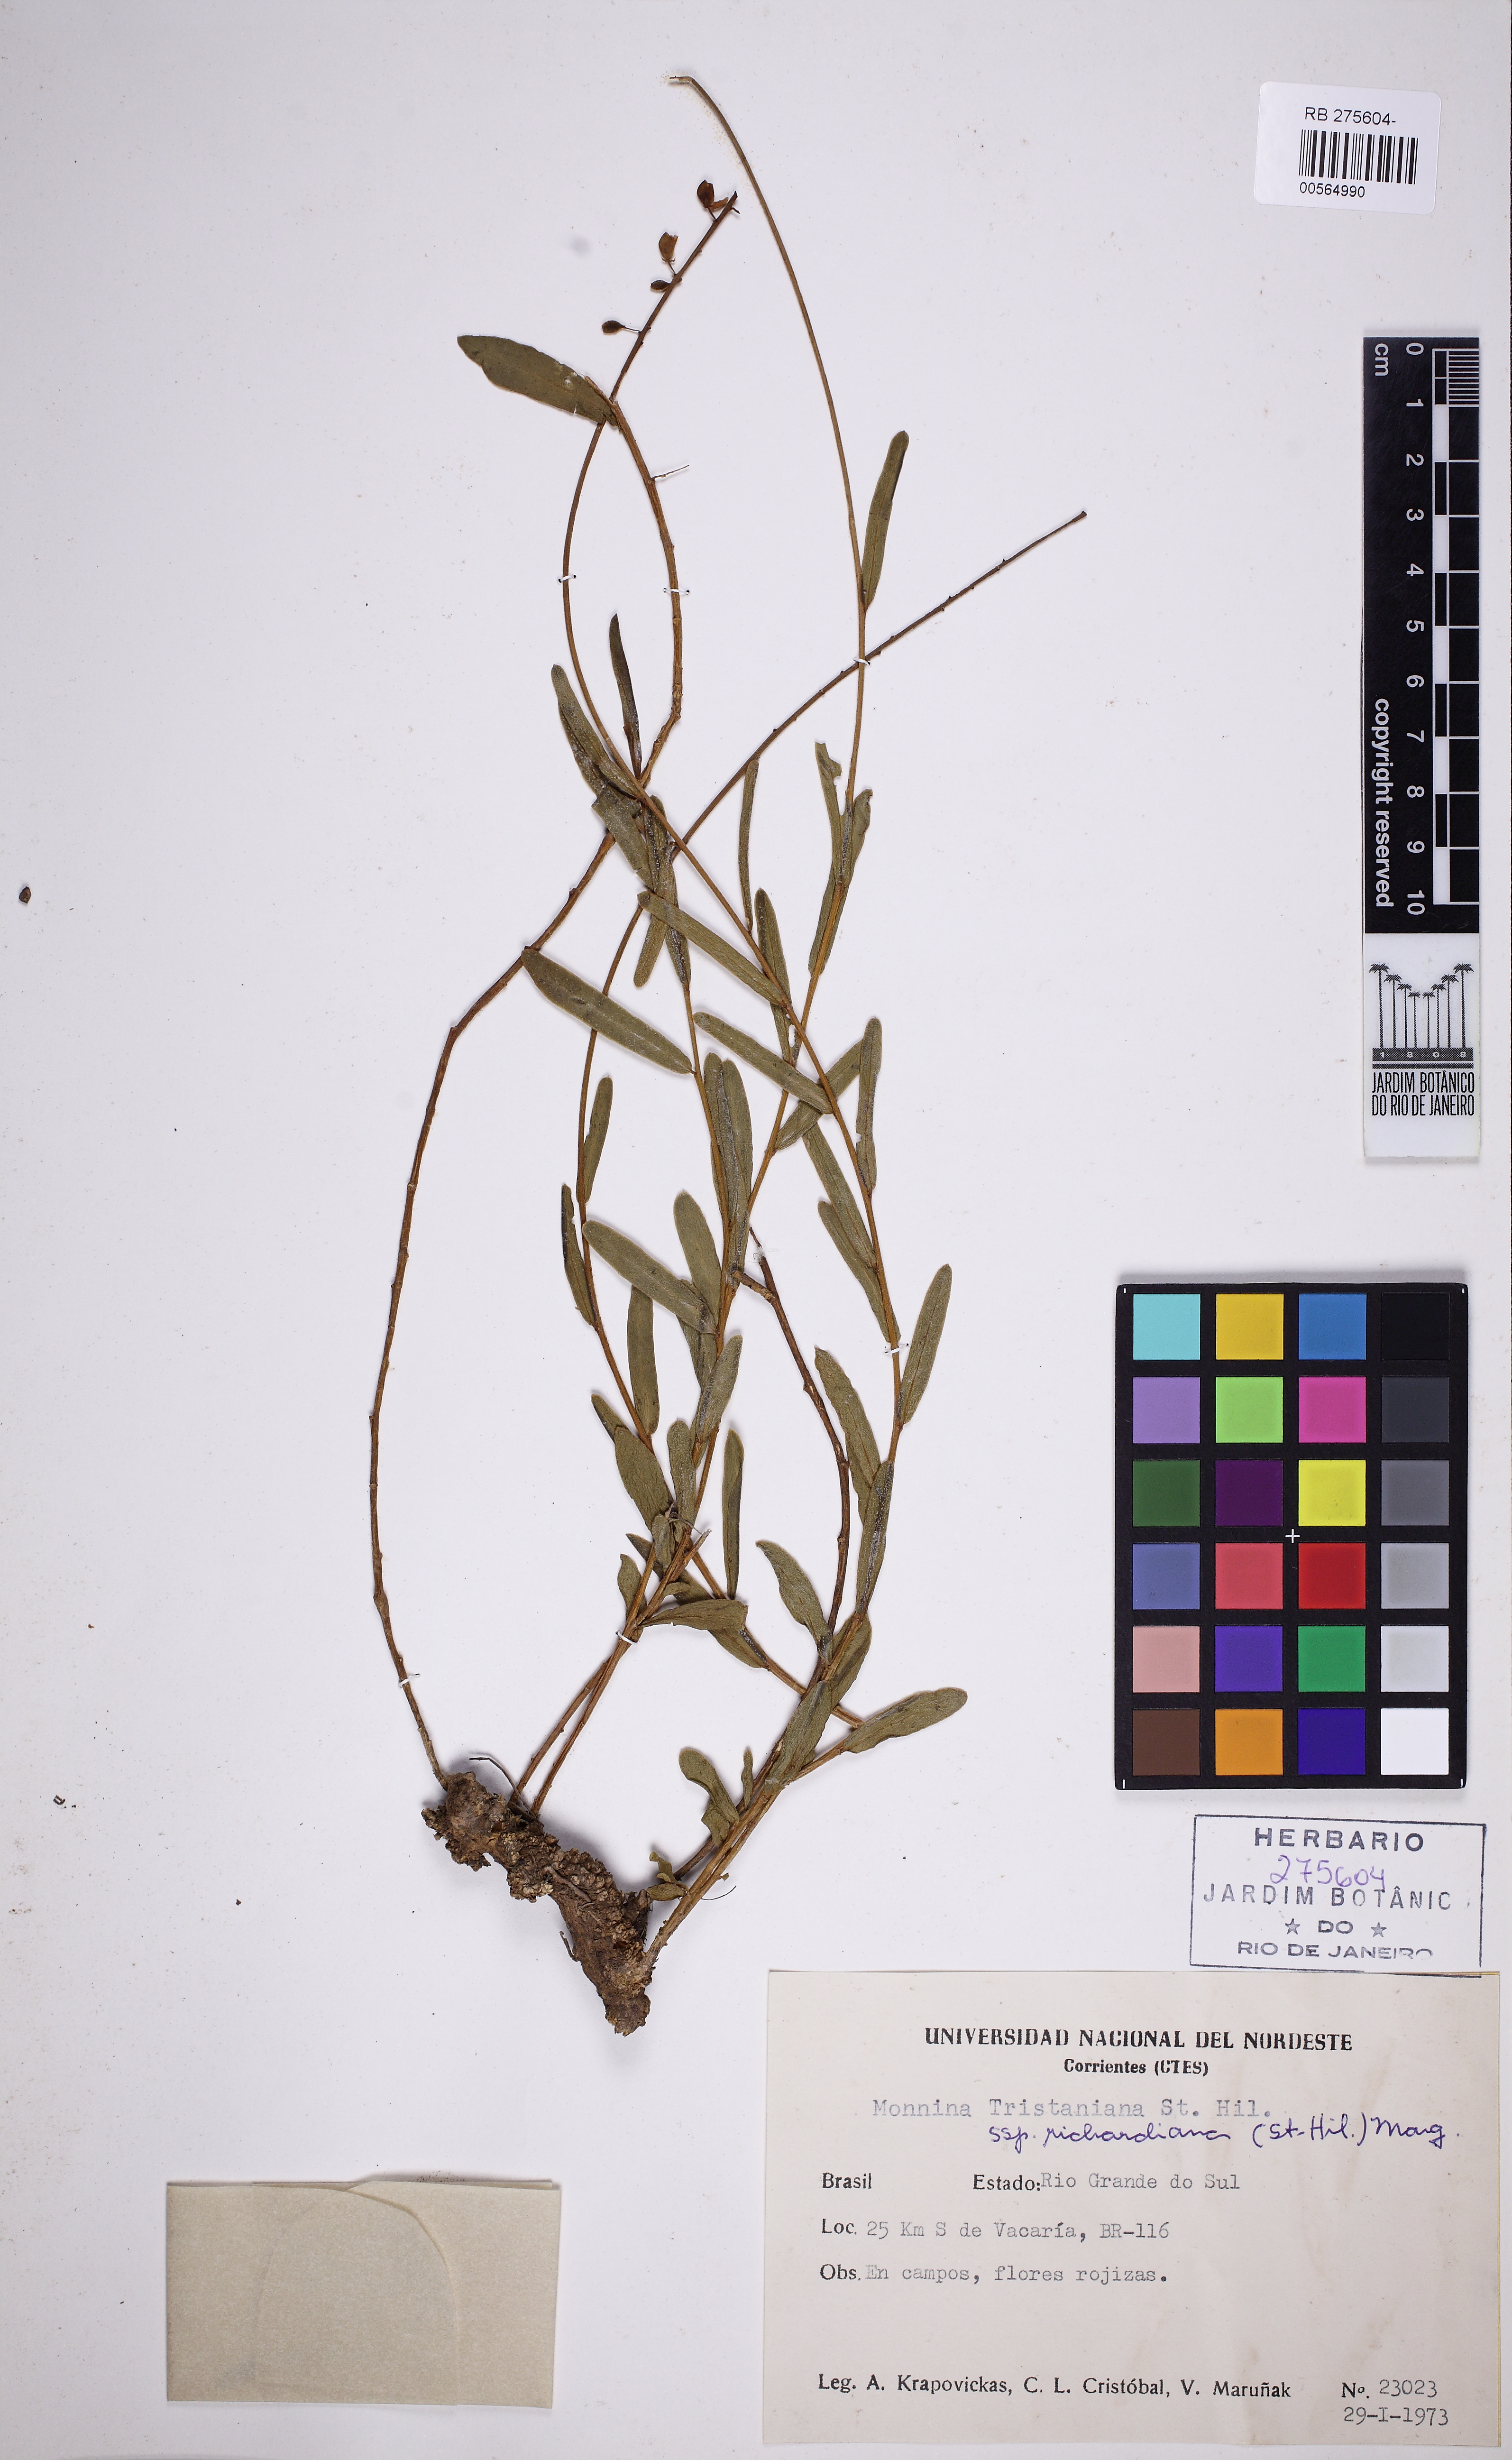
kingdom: Plantae
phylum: Tracheophyta
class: Magnoliopsida
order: Fabales
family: Polygalaceae
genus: Monnina
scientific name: Monnina richardiana
